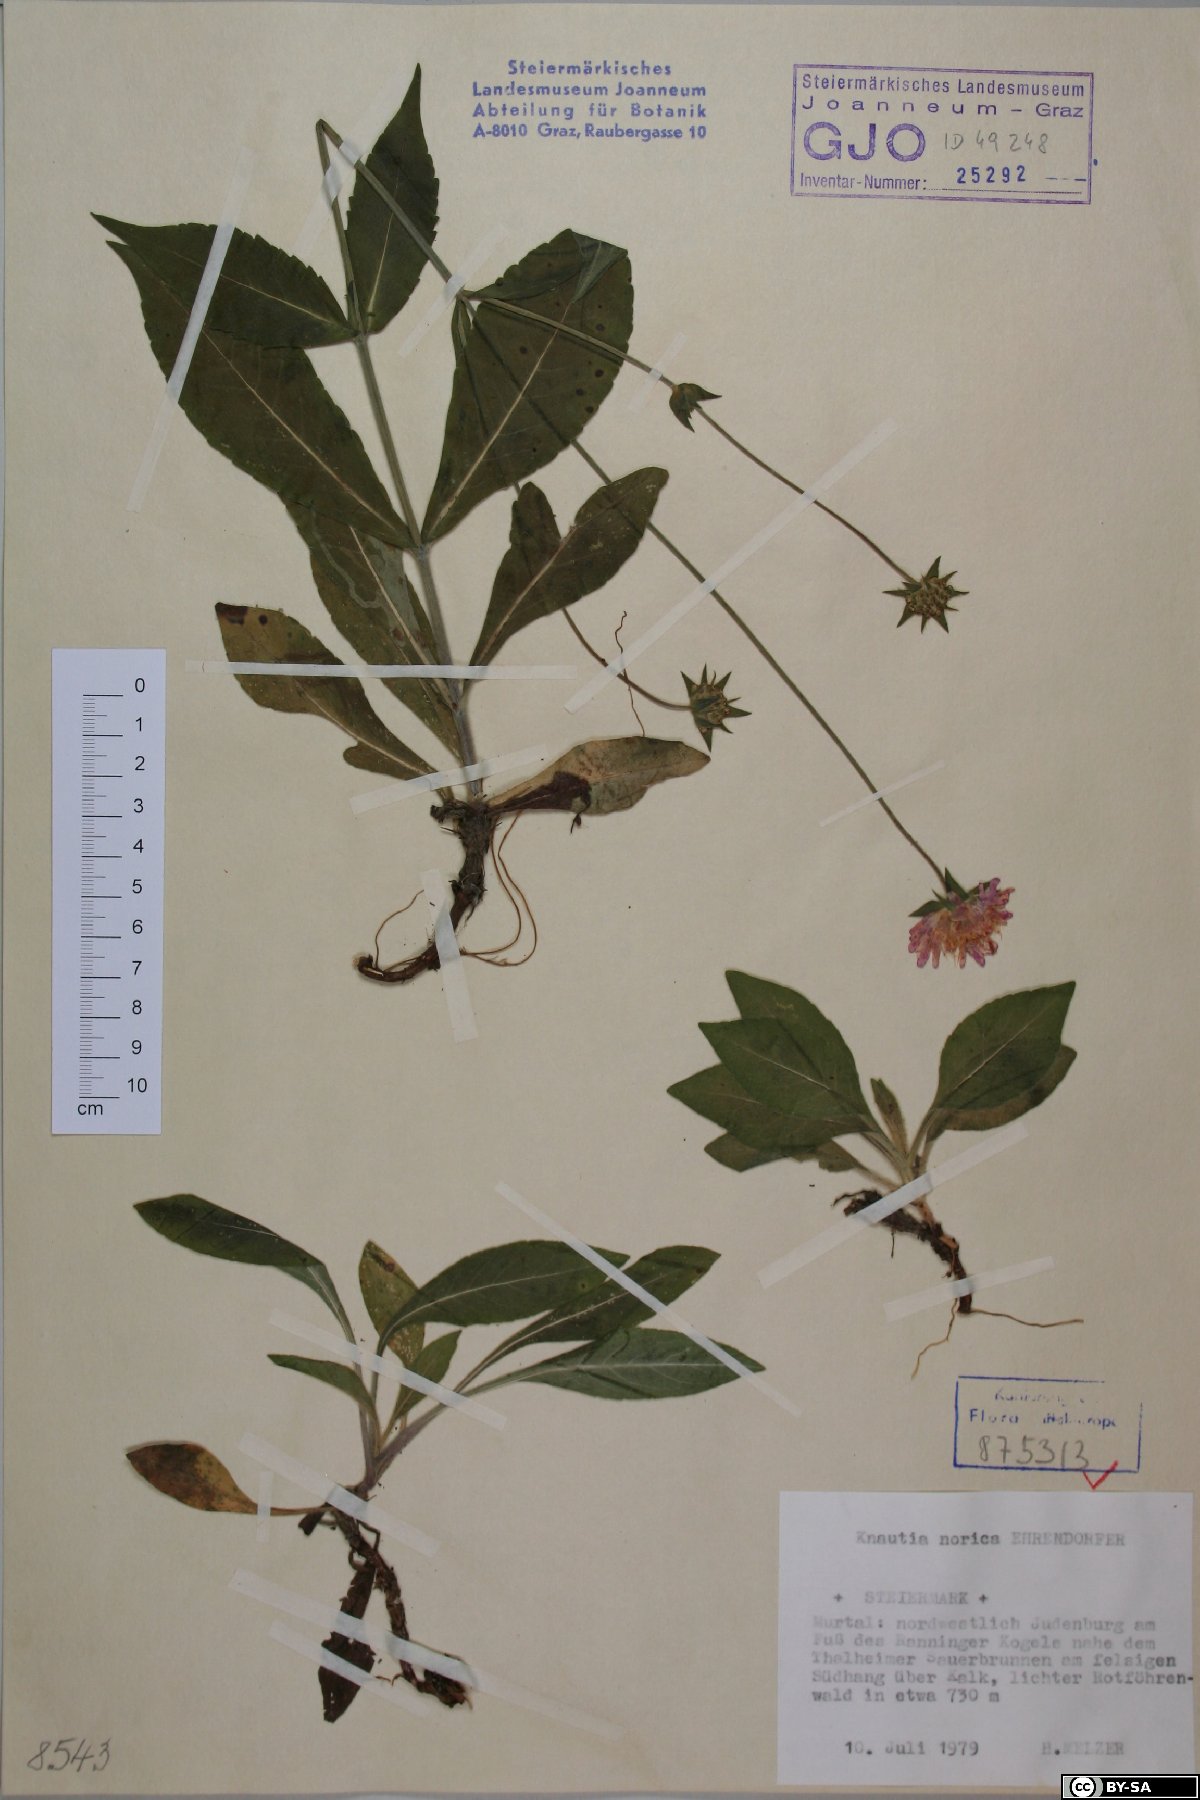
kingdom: Plantae
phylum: Tracheophyta
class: Magnoliopsida
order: Dipsacales
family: Caprifoliaceae
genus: Knautia
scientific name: Knautia norica
